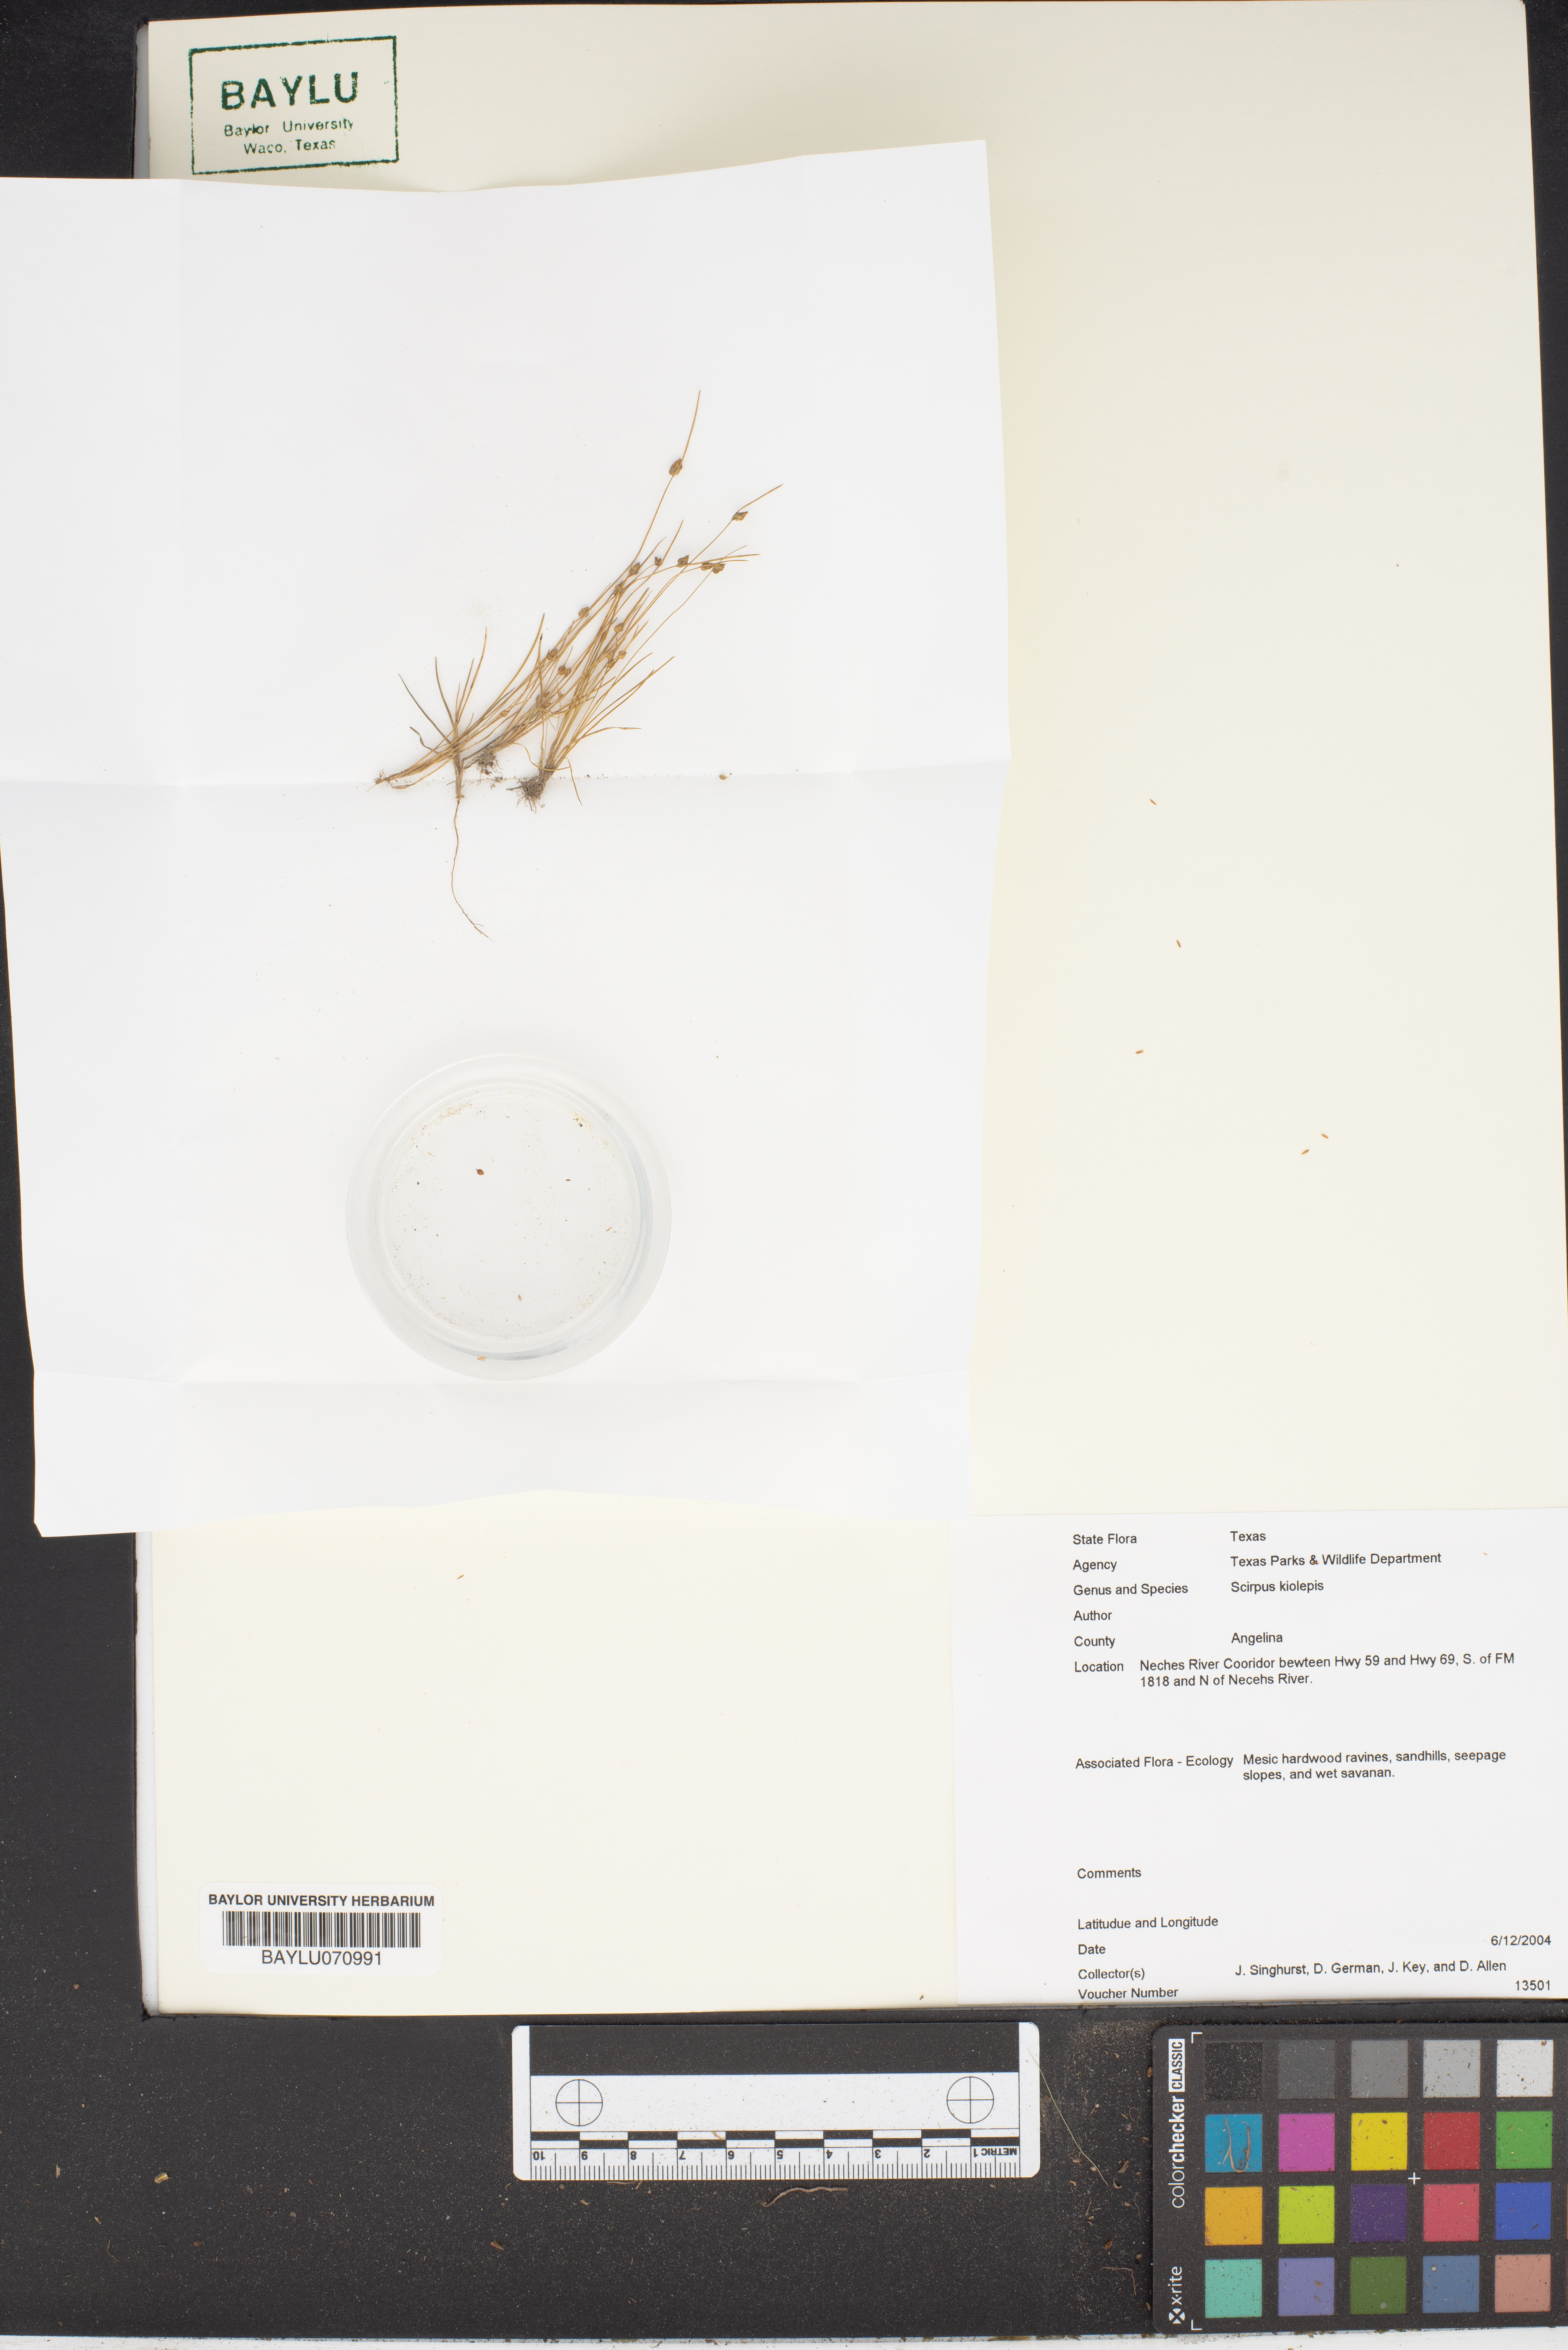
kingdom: Plantae
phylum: Tracheophyta
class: Liliopsida
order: Poales
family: Cyperaceae
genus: Isolepis
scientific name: Isolepis carinata
